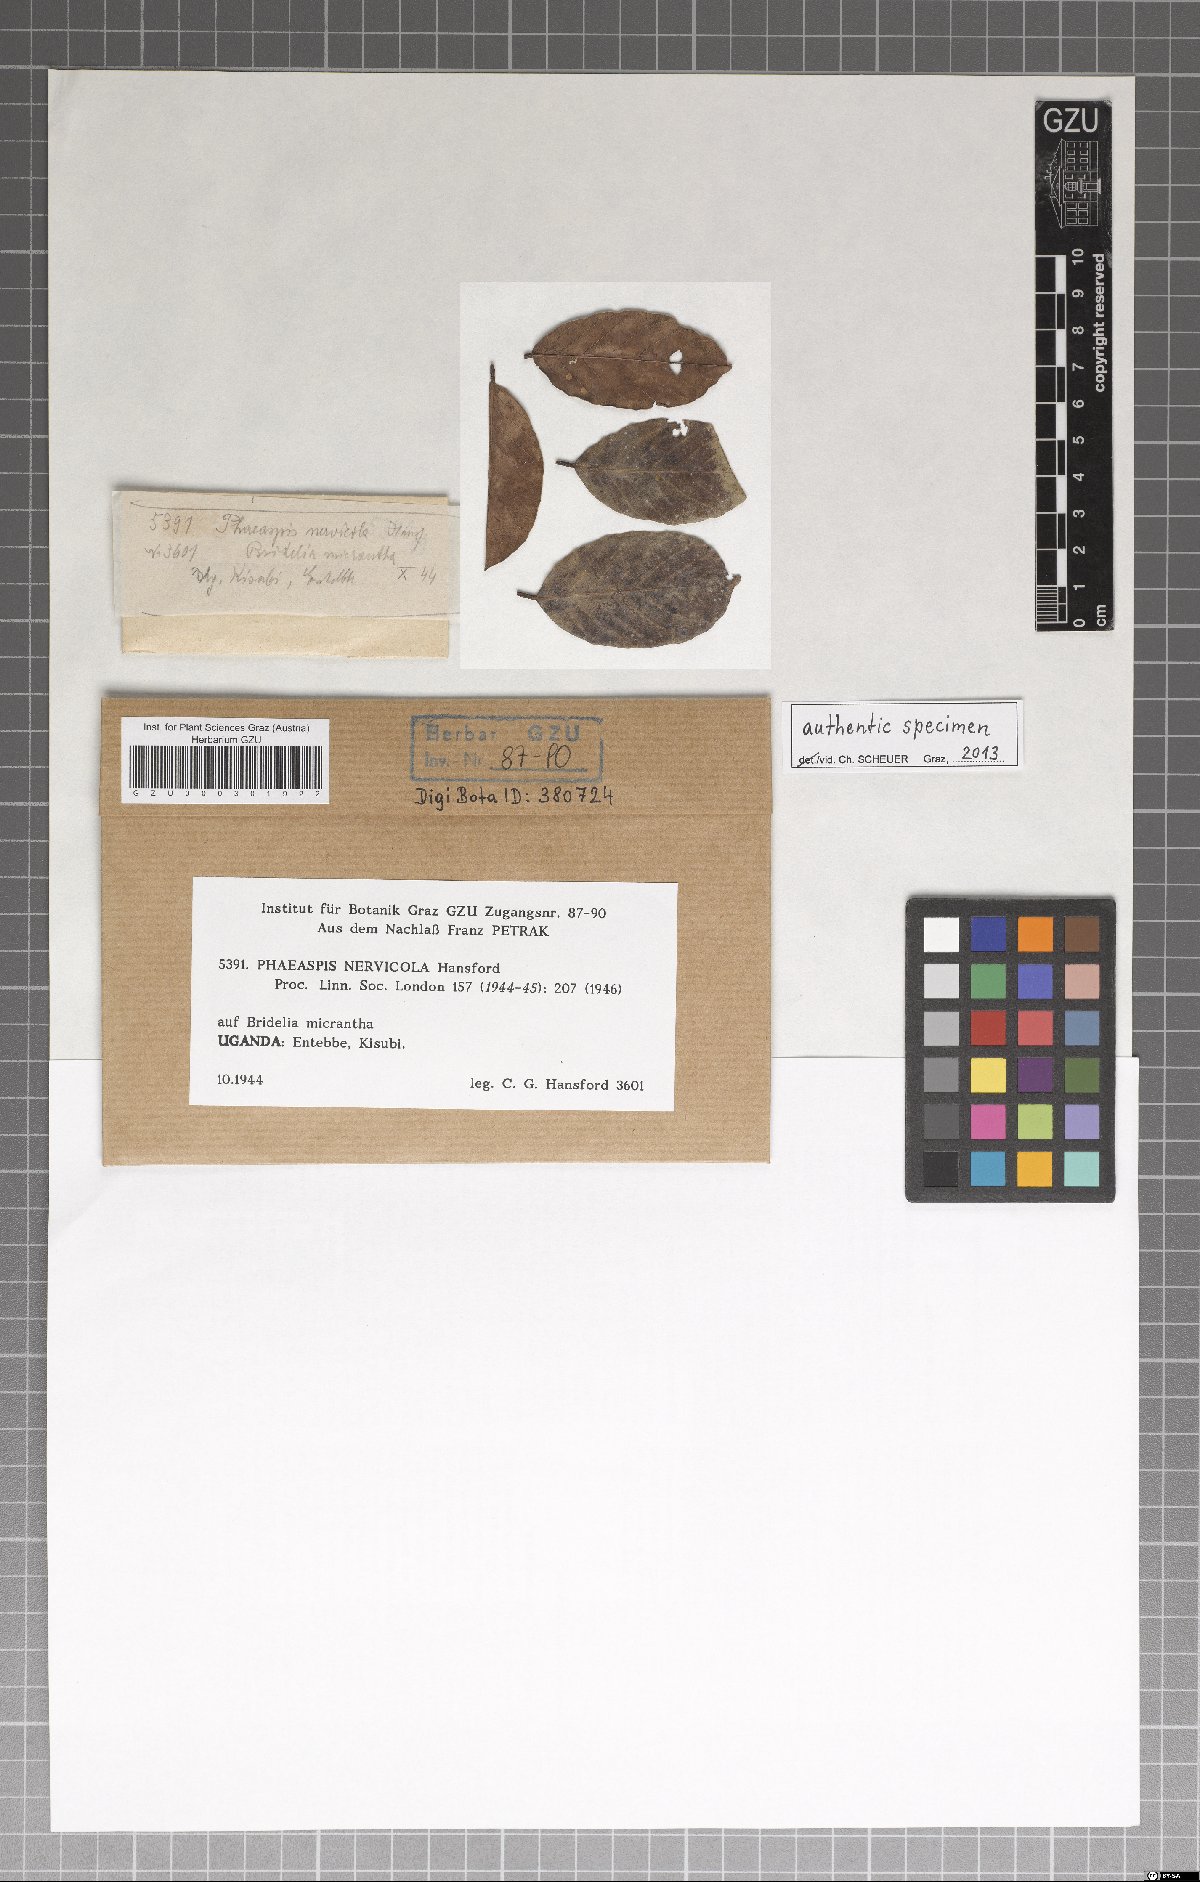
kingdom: Fungi
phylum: Ascomycota
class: Sordariomycetes
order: Phomatosporales
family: Phomatosporaceae
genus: Phaeaspis
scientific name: Phaeaspis nervicola
